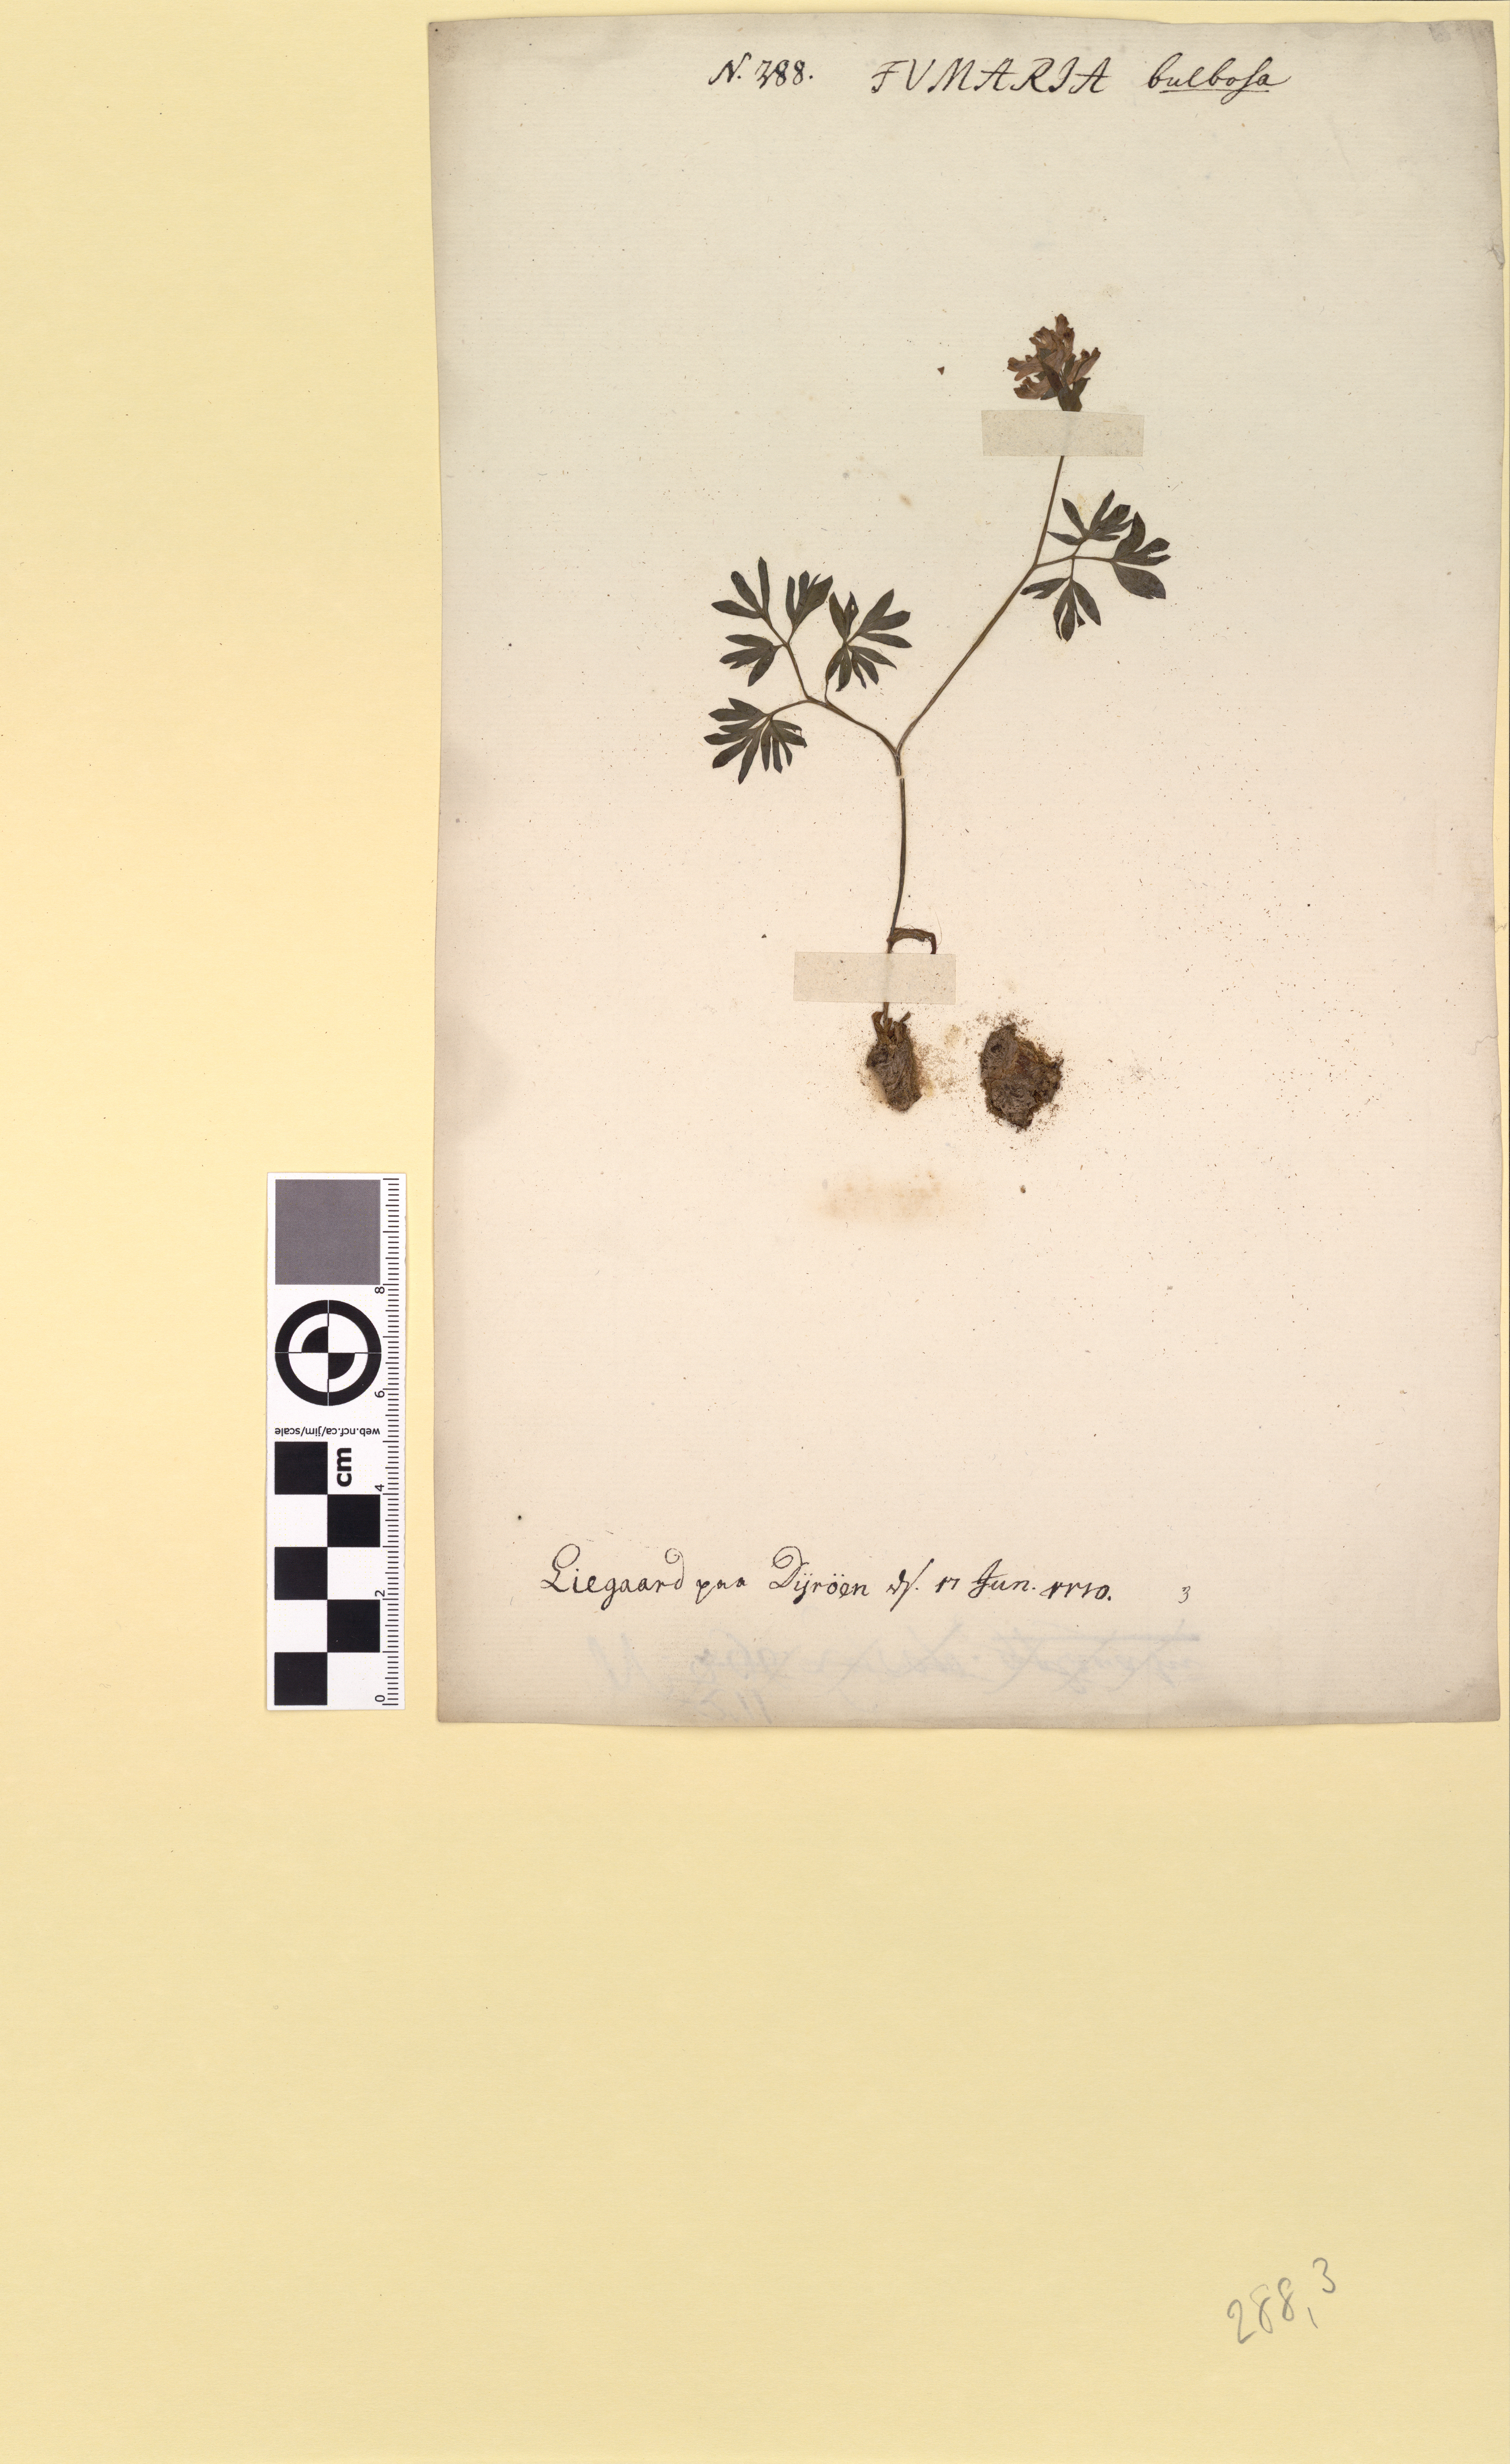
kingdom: Plantae
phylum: Tracheophyta
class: Magnoliopsida
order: Ranunculales
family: Papaveraceae
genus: Corydalis
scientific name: Corydalis intermedia
